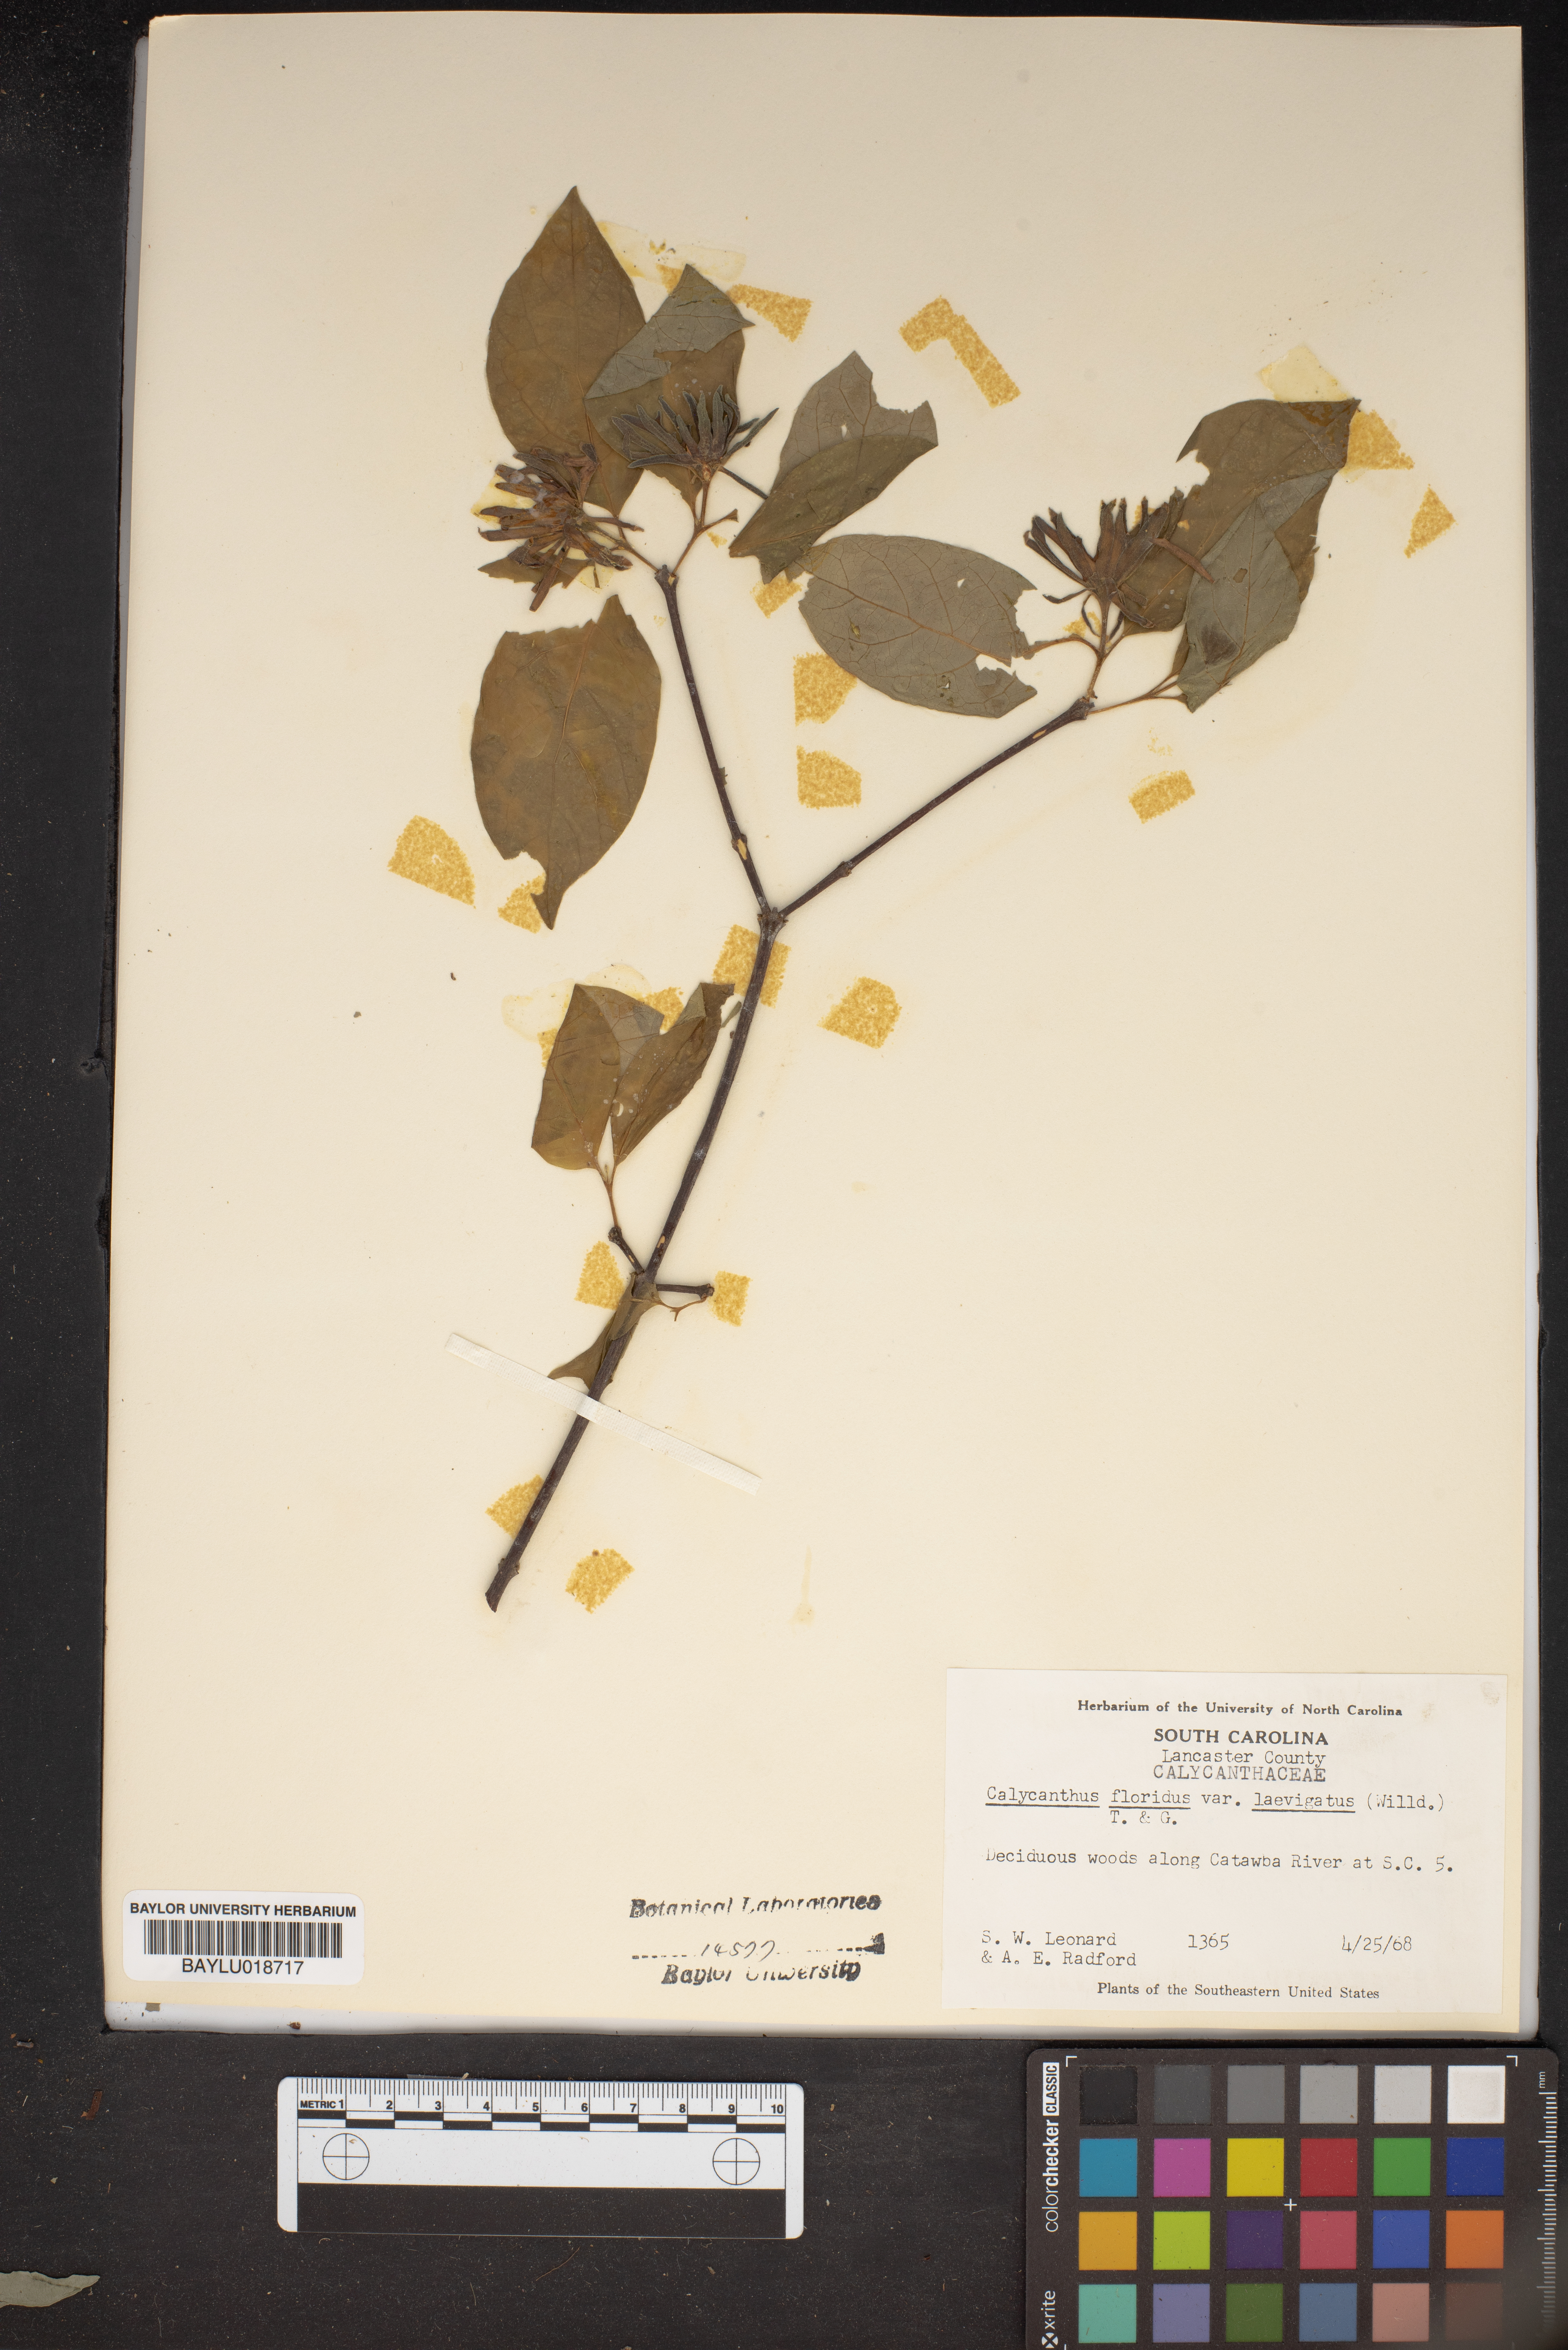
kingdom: Plantae
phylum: Tracheophyta
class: Magnoliopsida
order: Laurales
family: Calycanthaceae
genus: Calycanthus
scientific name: Calycanthus floridus
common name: Carolina-allspice
